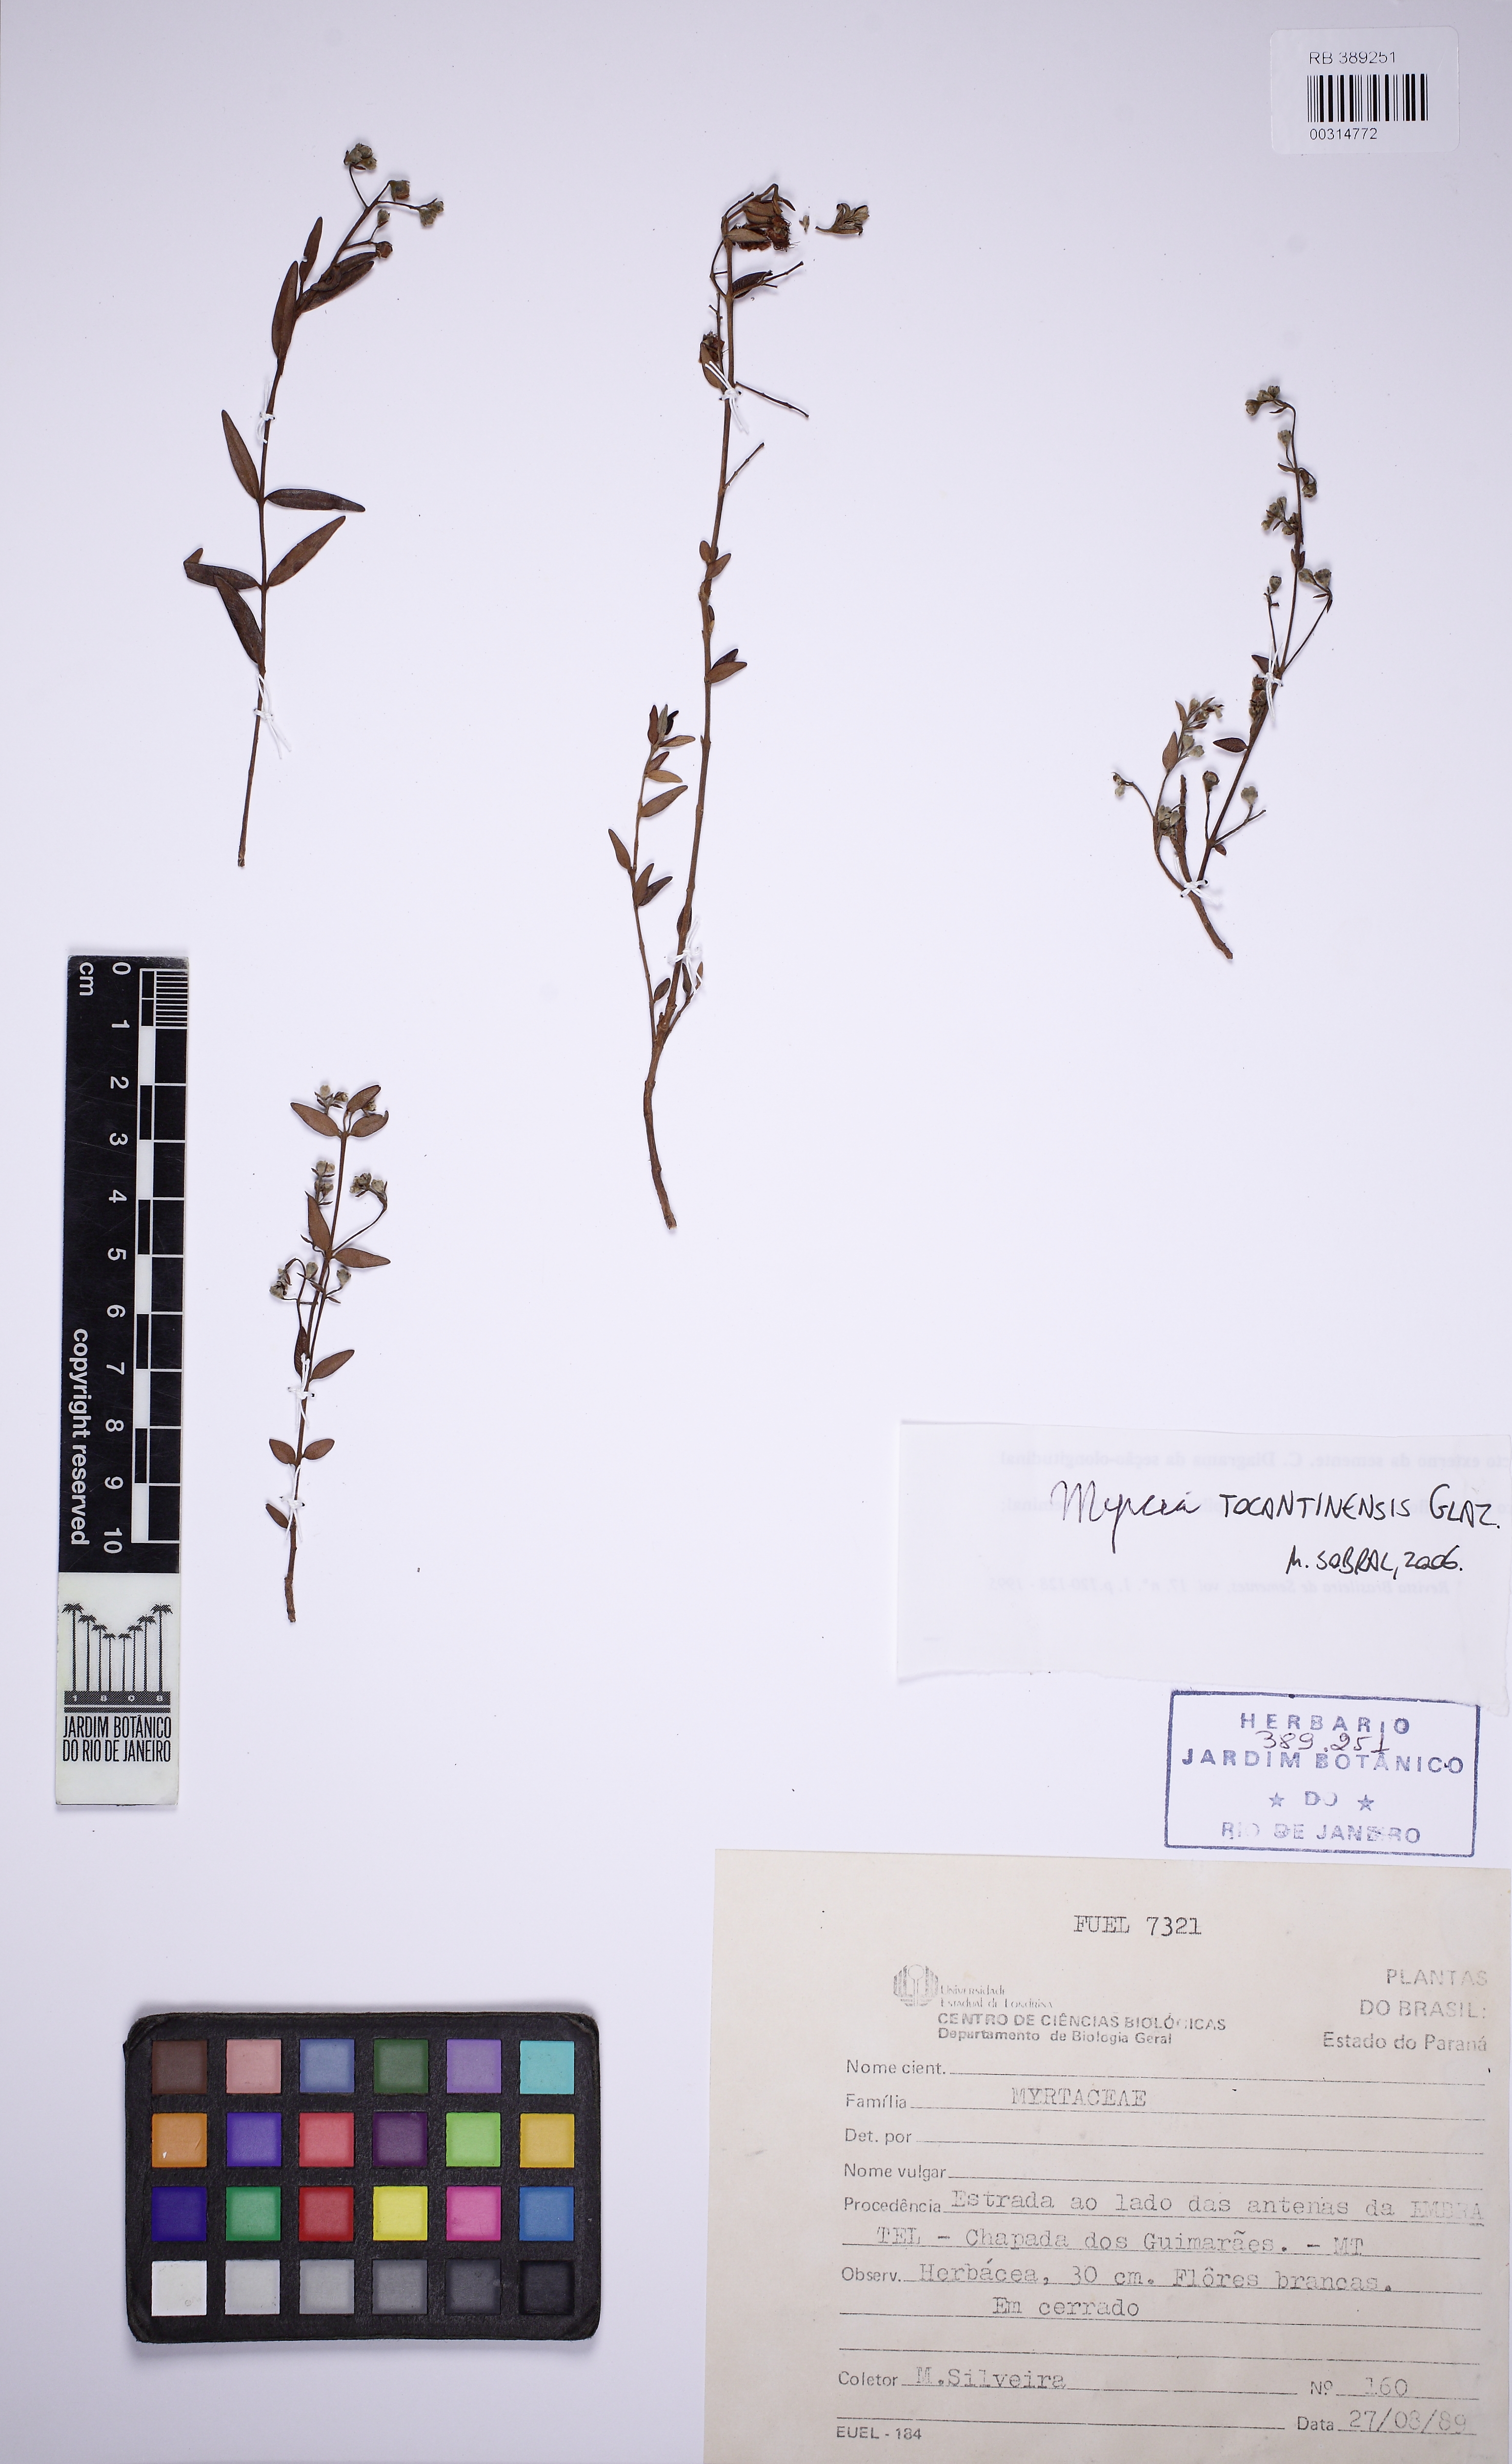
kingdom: Plantae
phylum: Tracheophyta
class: Magnoliopsida
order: Myrtales
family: Myrtaceae
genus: Myrcia
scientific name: Myrcia tocantinensis
